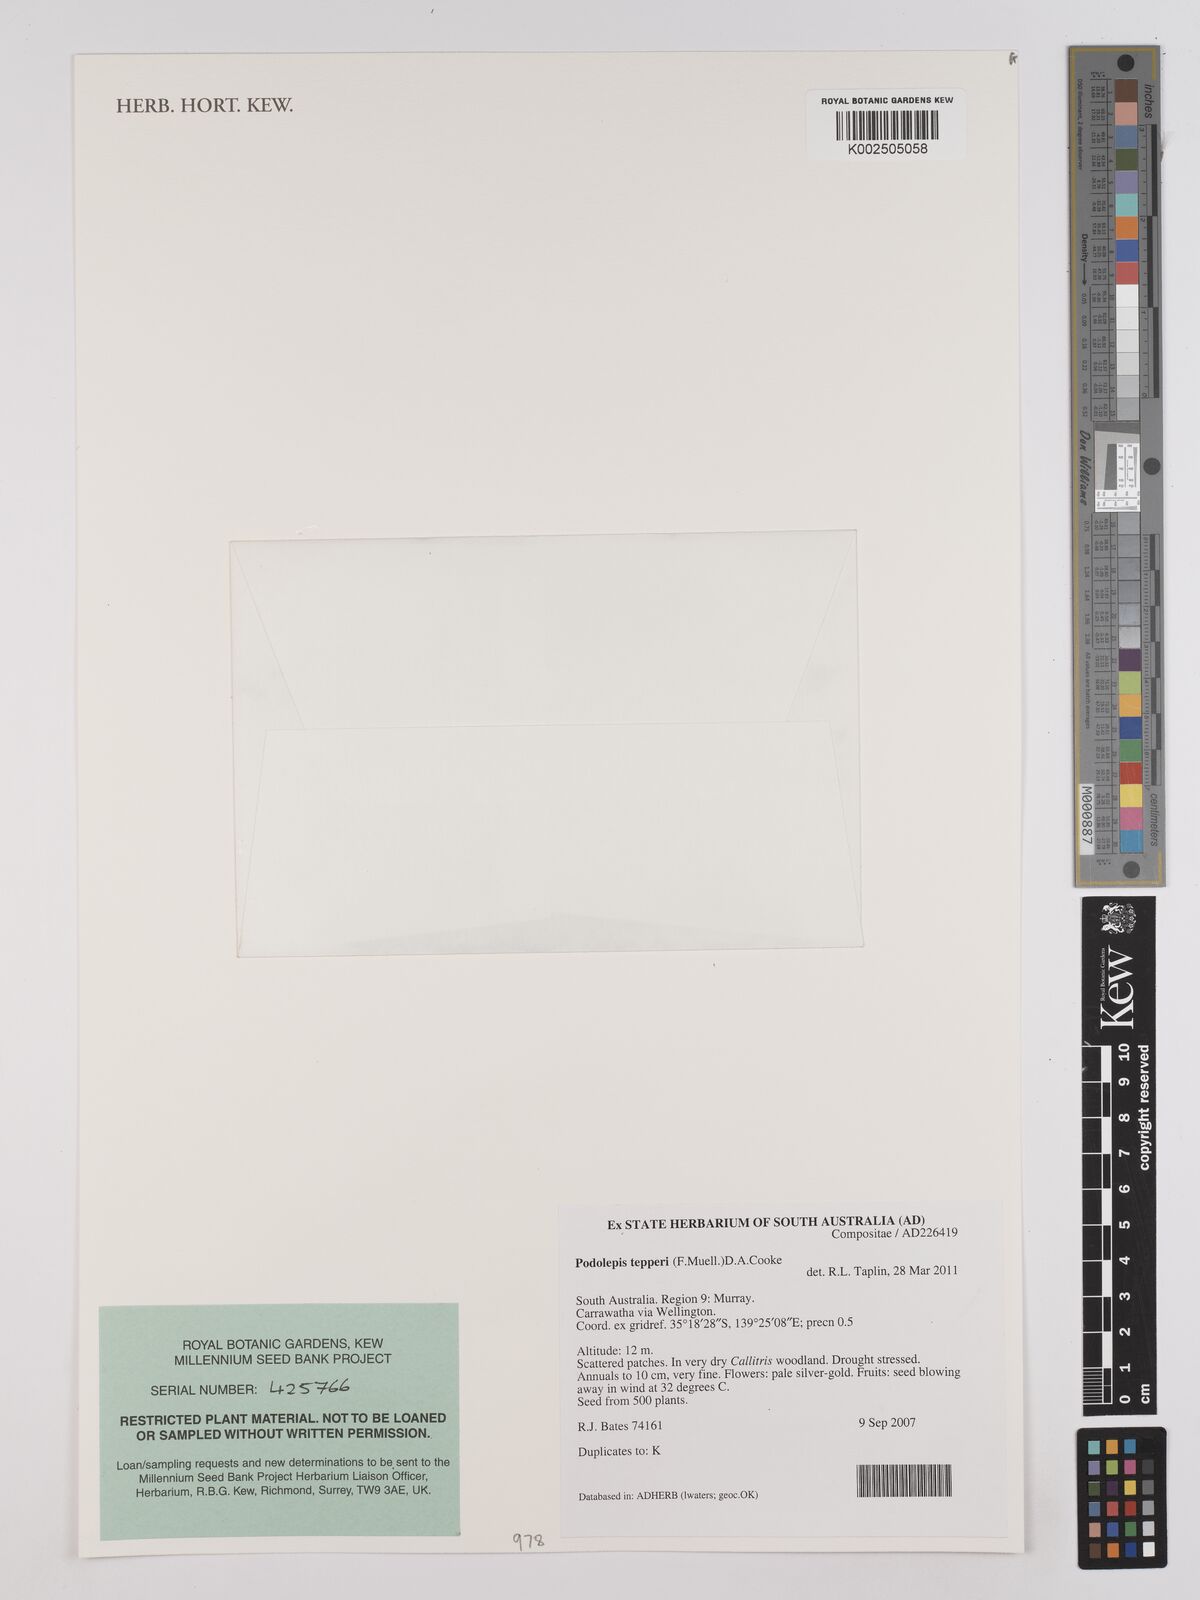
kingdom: Plantae
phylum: Tracheophyta
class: Magnoliopsida
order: Asterales
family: Asteraceae
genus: Panaetia
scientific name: Panaetia
